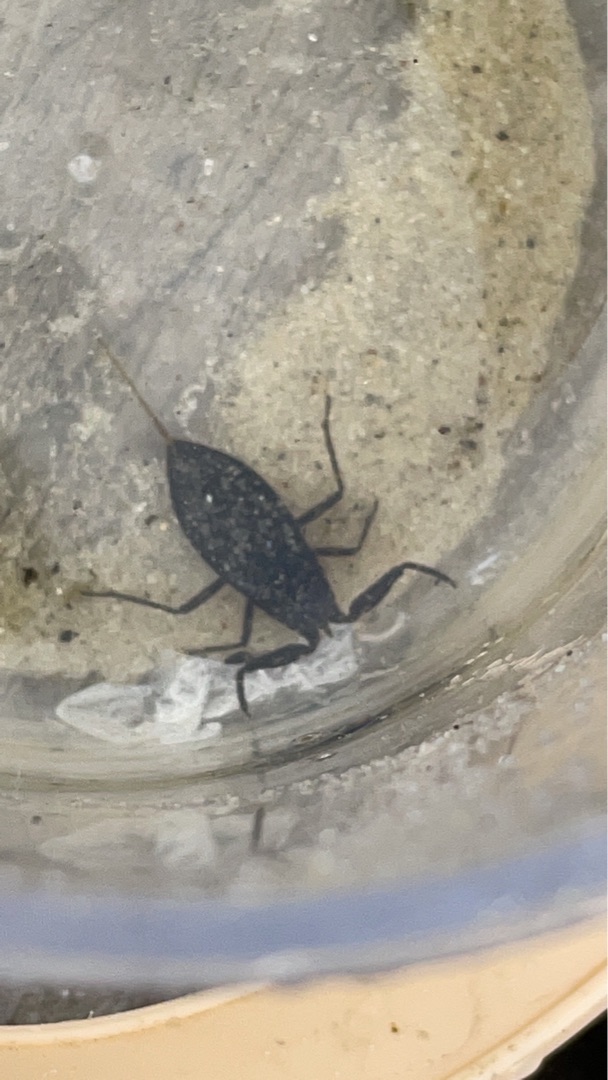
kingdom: Animalia
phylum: Arthropoda
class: Insecta
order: Hemiptera
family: Nepidae
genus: Nepa
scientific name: Nepa cinerea
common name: Skorpiontæge
